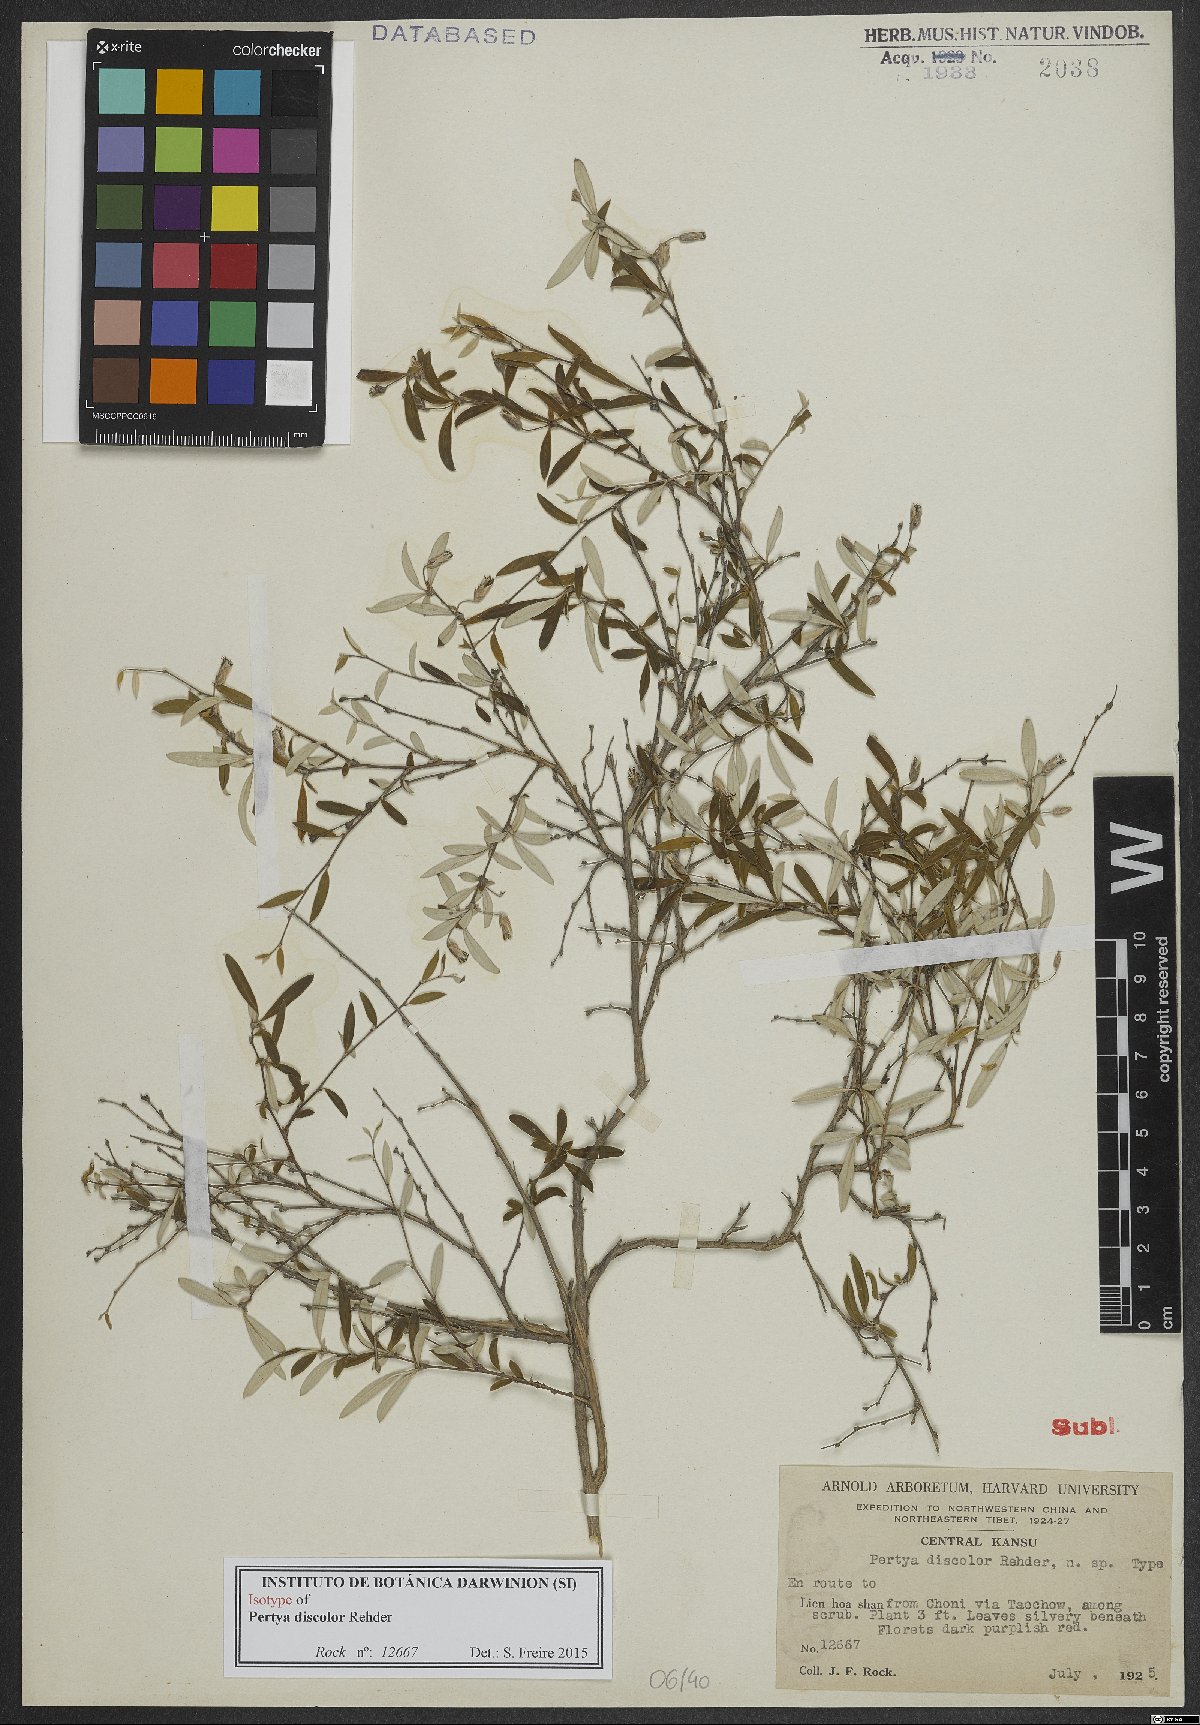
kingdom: Plantae
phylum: Tracheophyta
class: Magnoliopsida
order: Asterales
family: Asteraceae
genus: Pertya
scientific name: Pertya discolor
